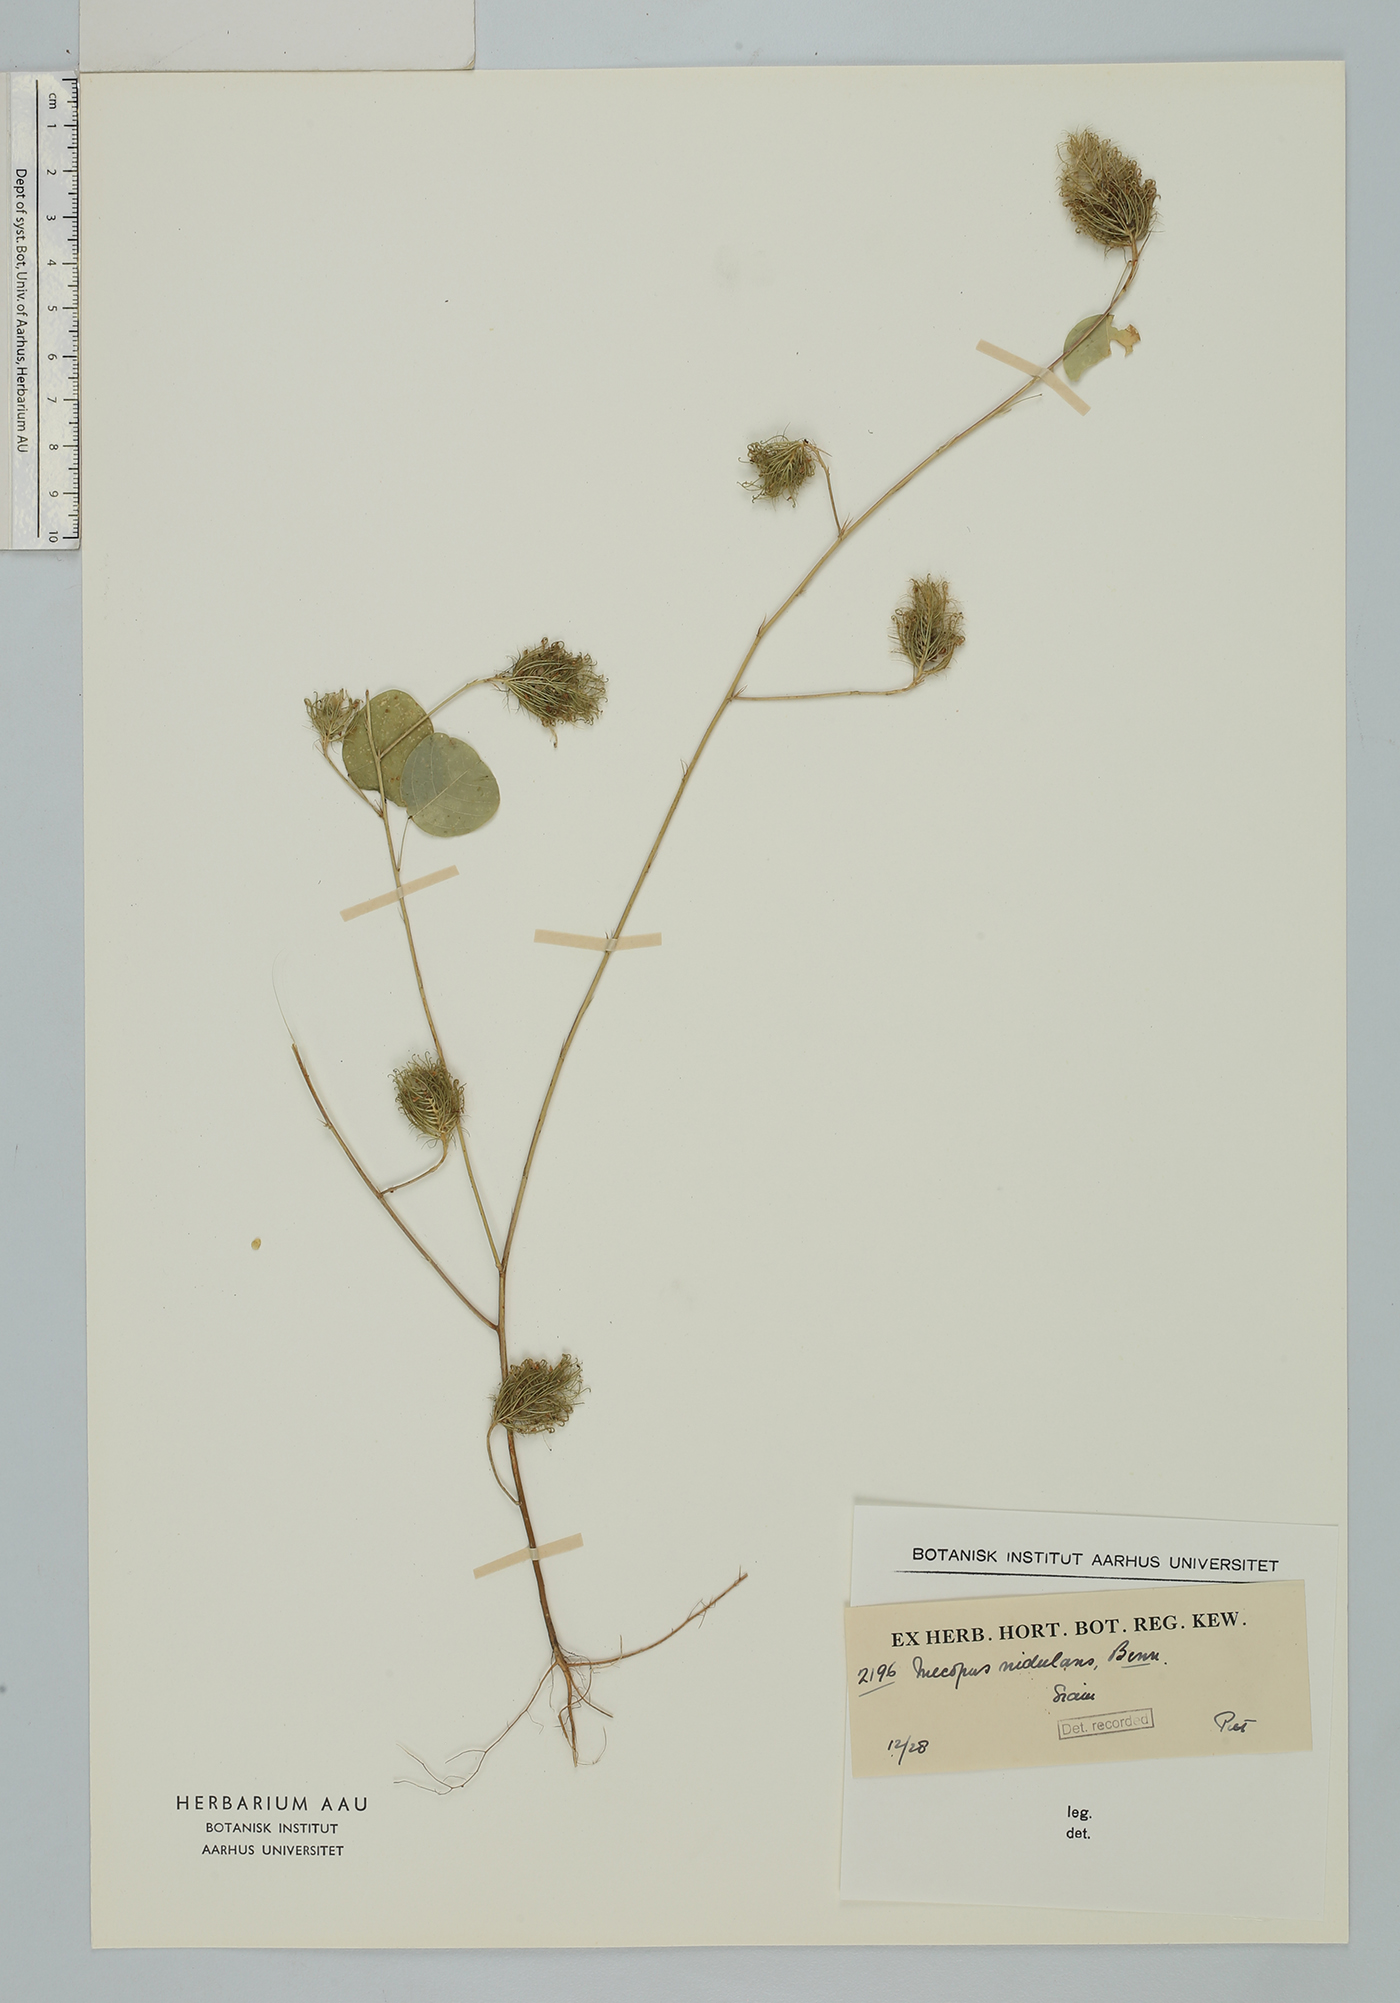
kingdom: Plantae
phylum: Tracheophyta
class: Magnoliopsida
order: Fabales
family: Fabaceae
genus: Mecopus
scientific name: Mecopus nidulans
